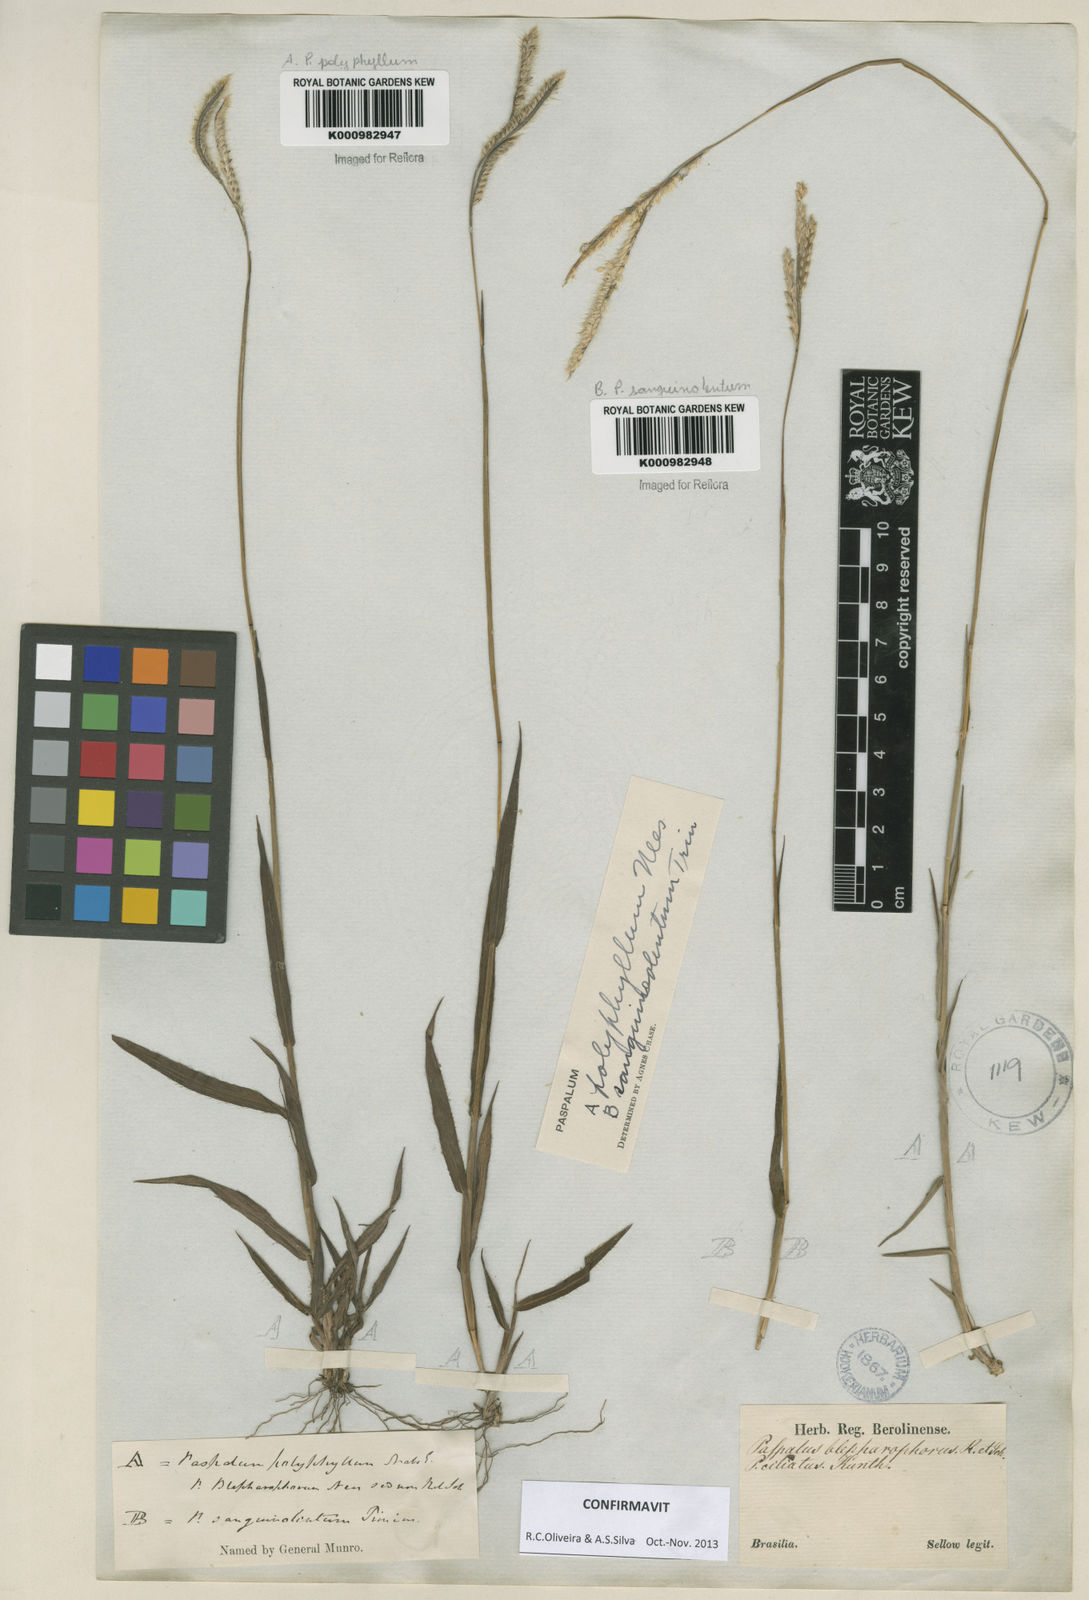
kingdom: Plantae
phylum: Tracheophyta
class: Liliopsida
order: Poales
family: Poaceae
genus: Paspalum
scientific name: Paspalum
